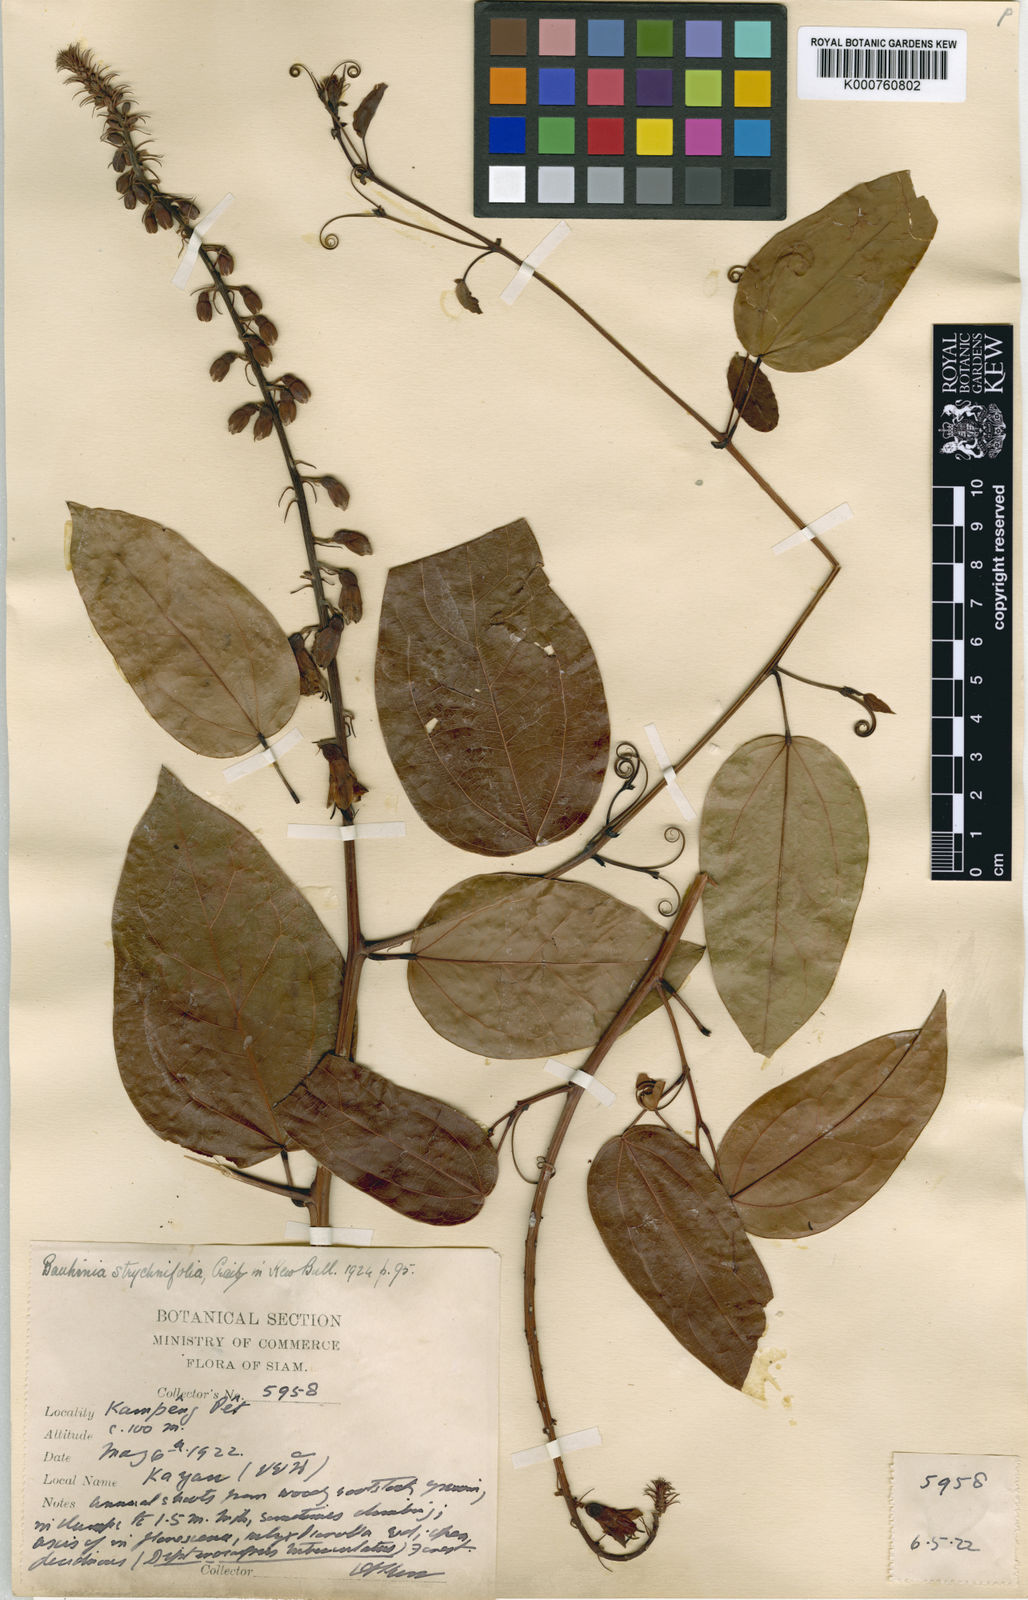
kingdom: Plantae
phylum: Tracheophyta
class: Magnoliopsida
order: Fabales
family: Fabaceae
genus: Lysiphyllum
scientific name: Lysiphyllum strychnifolium
